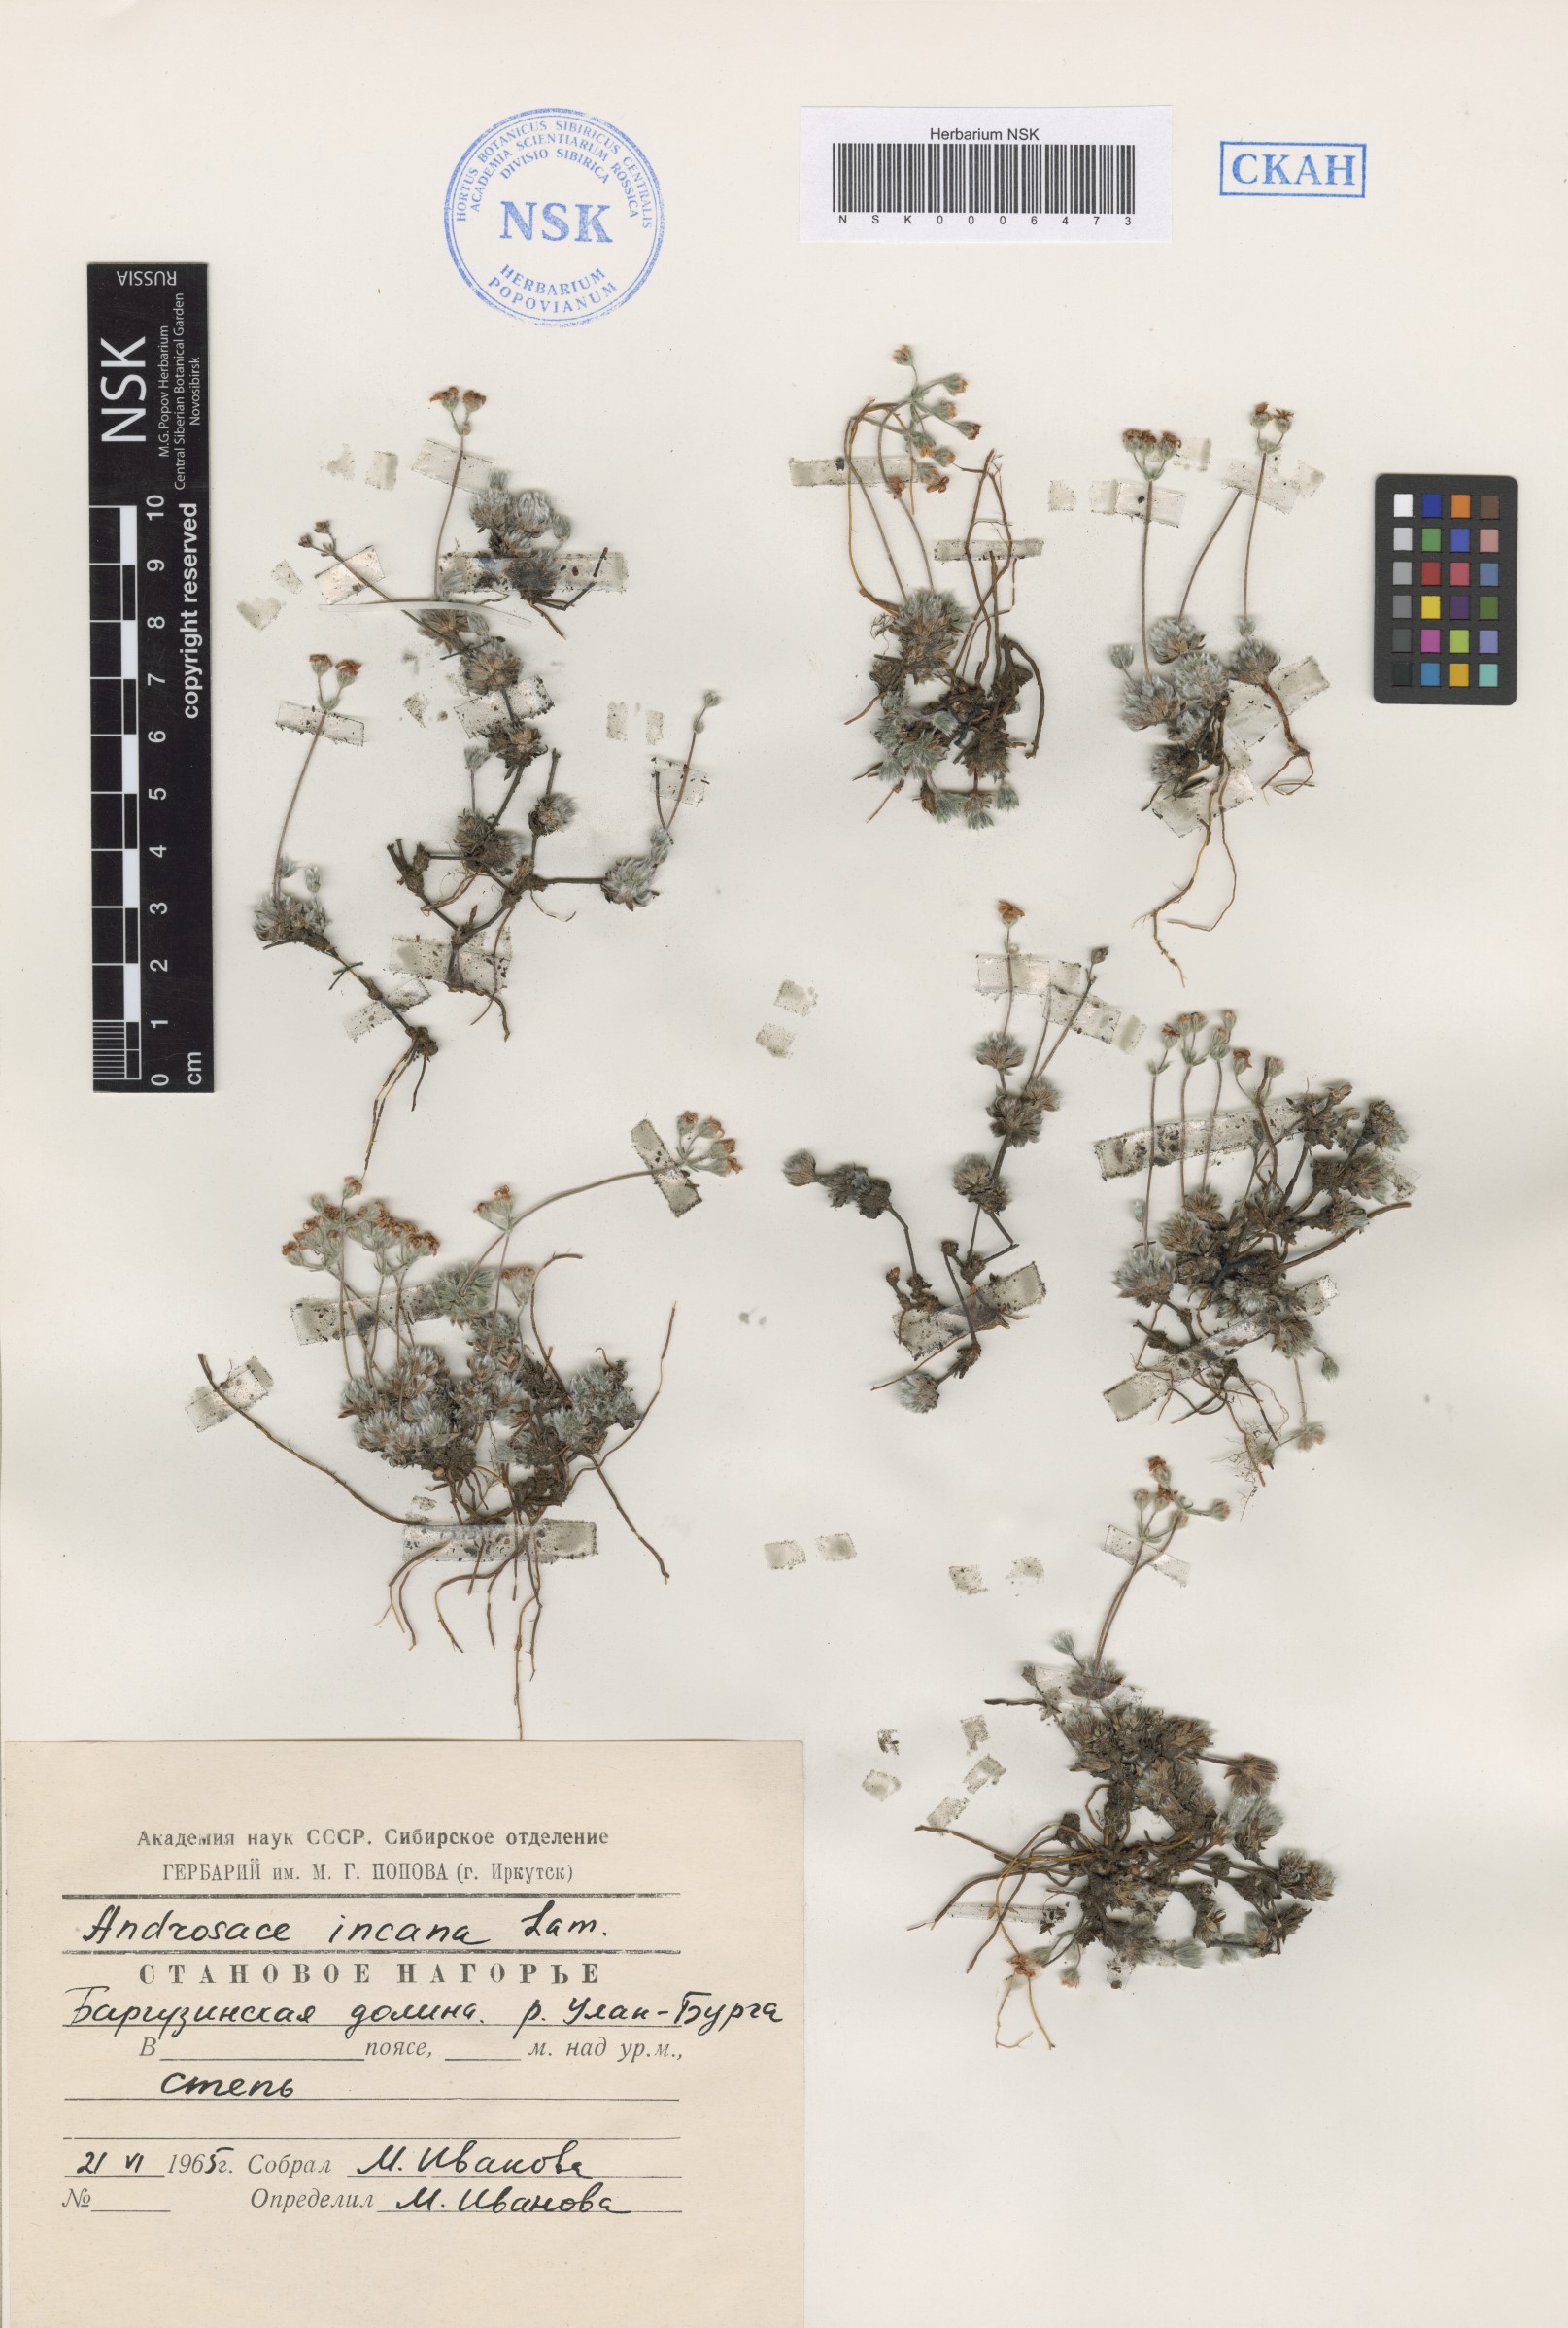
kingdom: Plantae
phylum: Tracheophyta
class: Magnoliopsida
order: Ericales
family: Primulaceae
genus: Androsace
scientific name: Androsace incana
